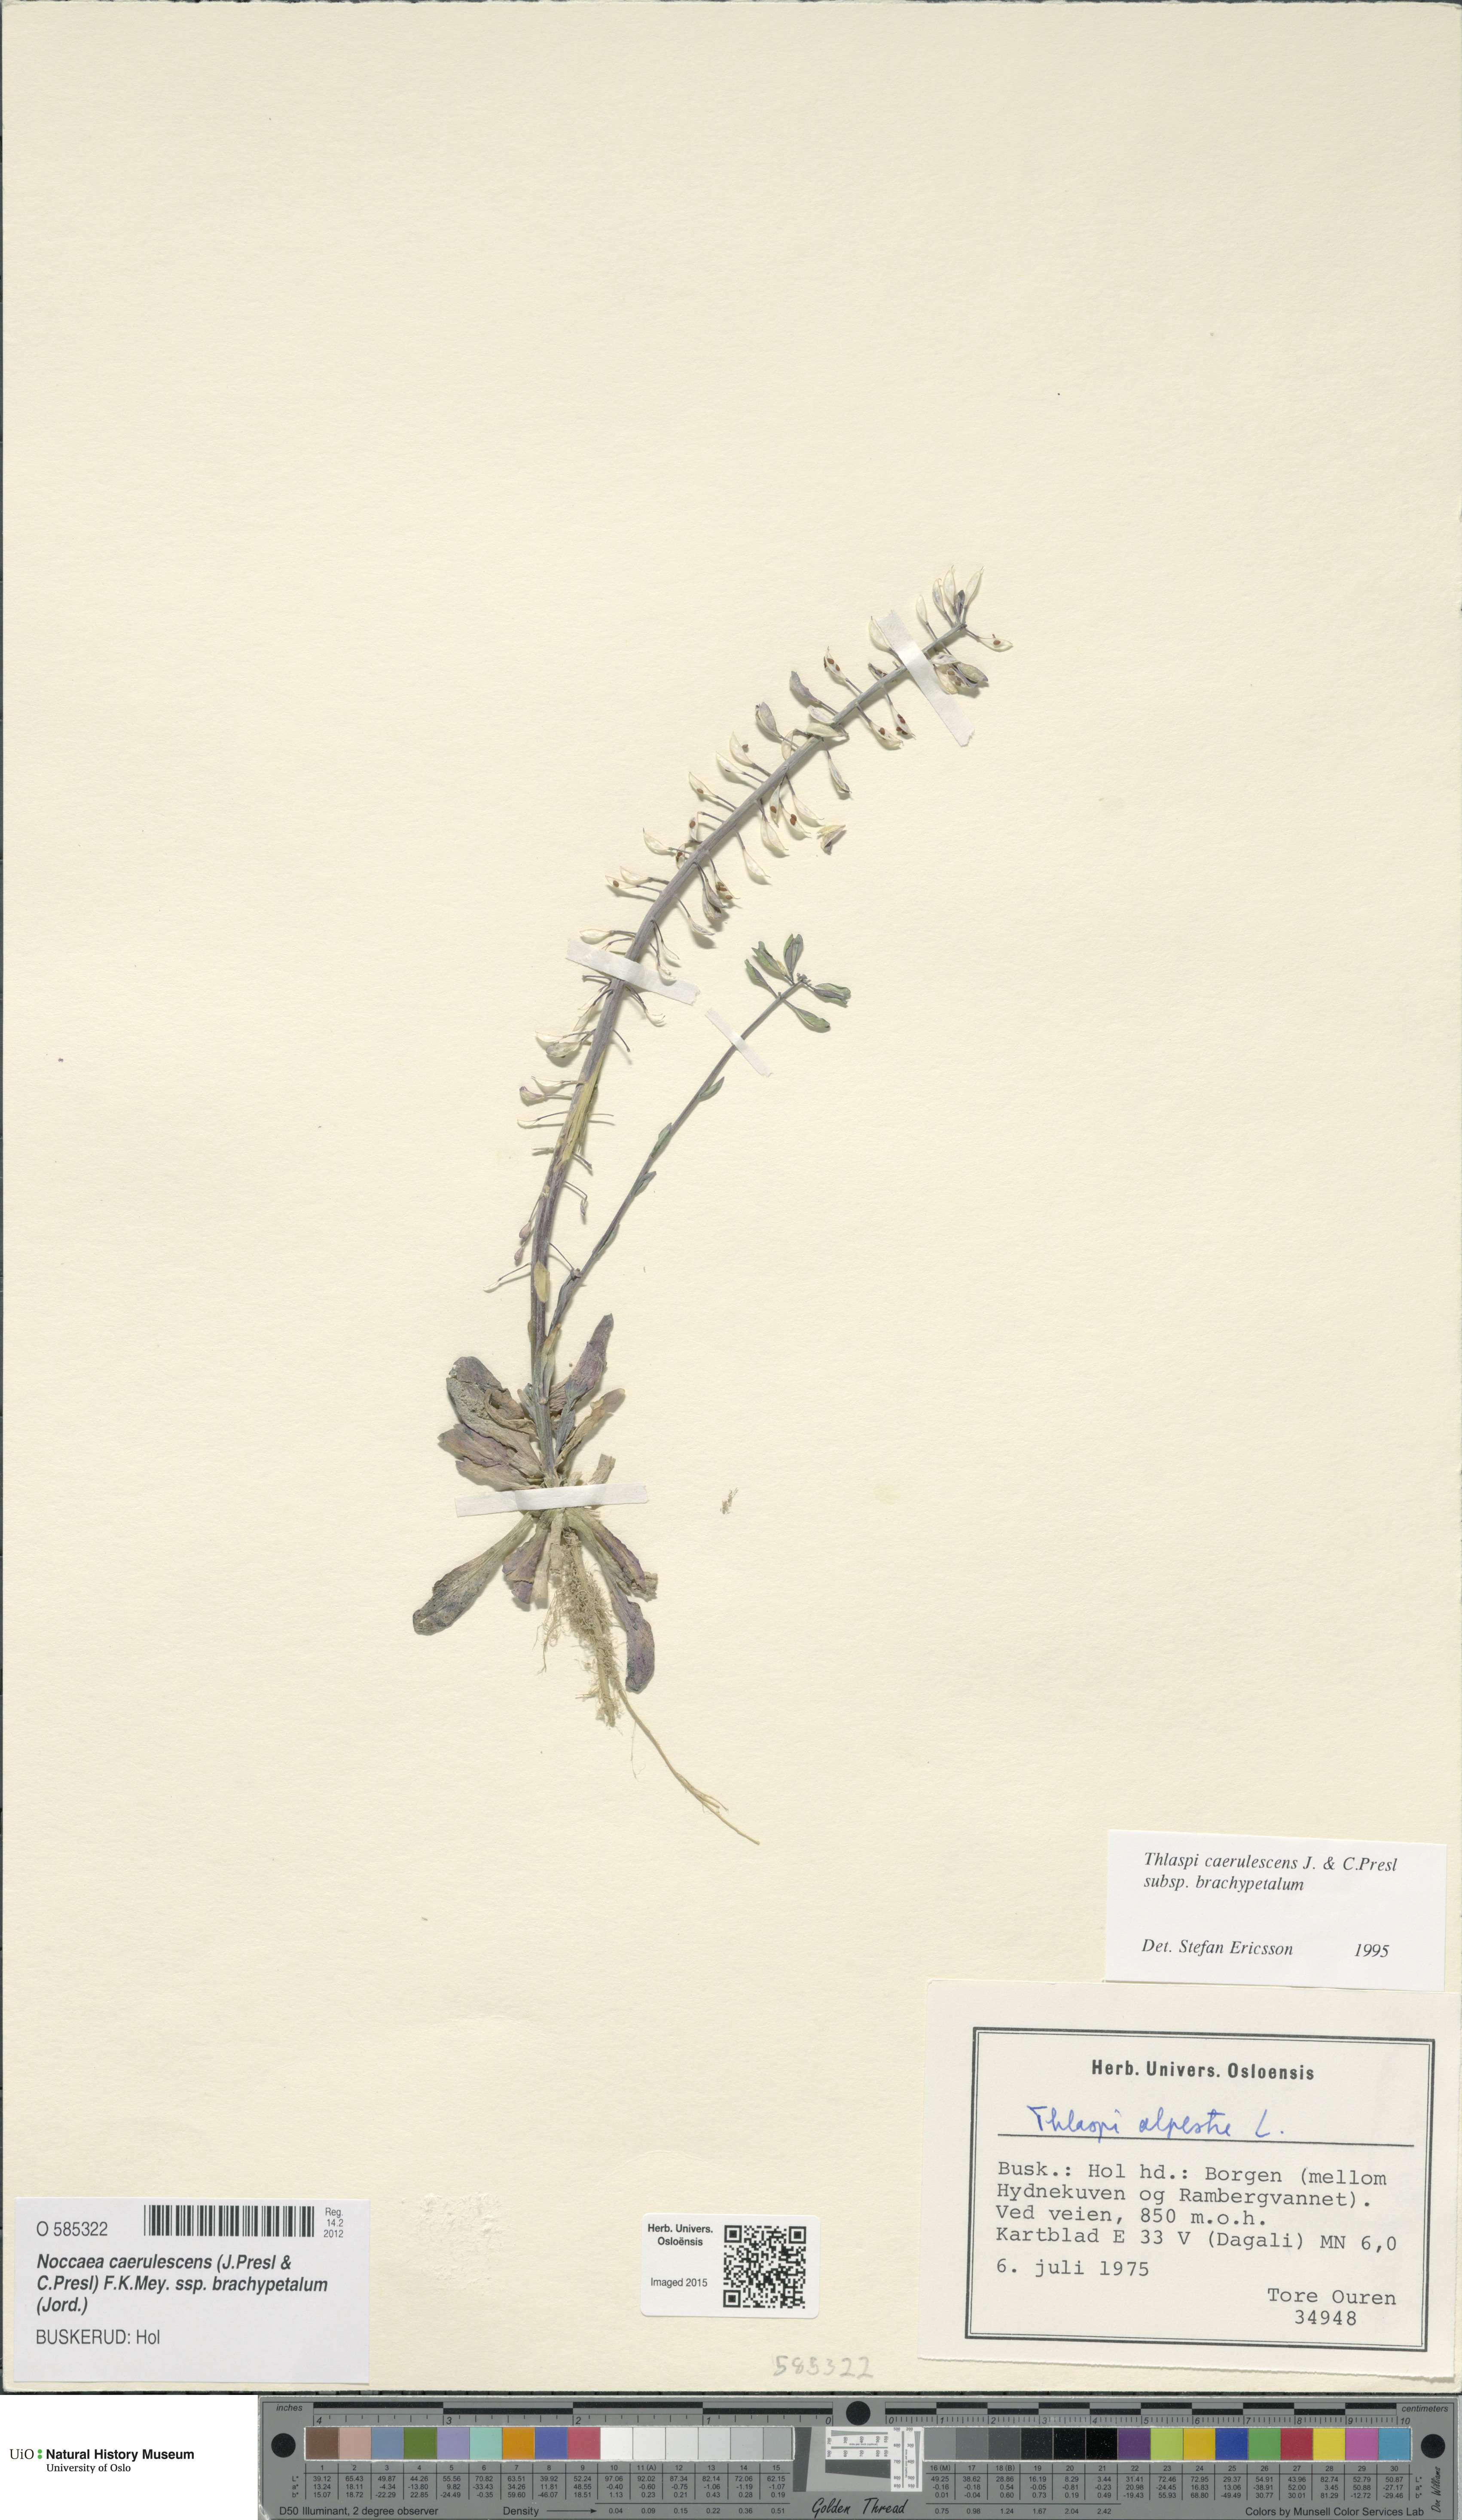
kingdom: Plantae
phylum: Tracheophyta
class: Magnoliopsida
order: Brassicales
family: Brassicaceae
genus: Noccaea
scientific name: Noccaea brachypetala
